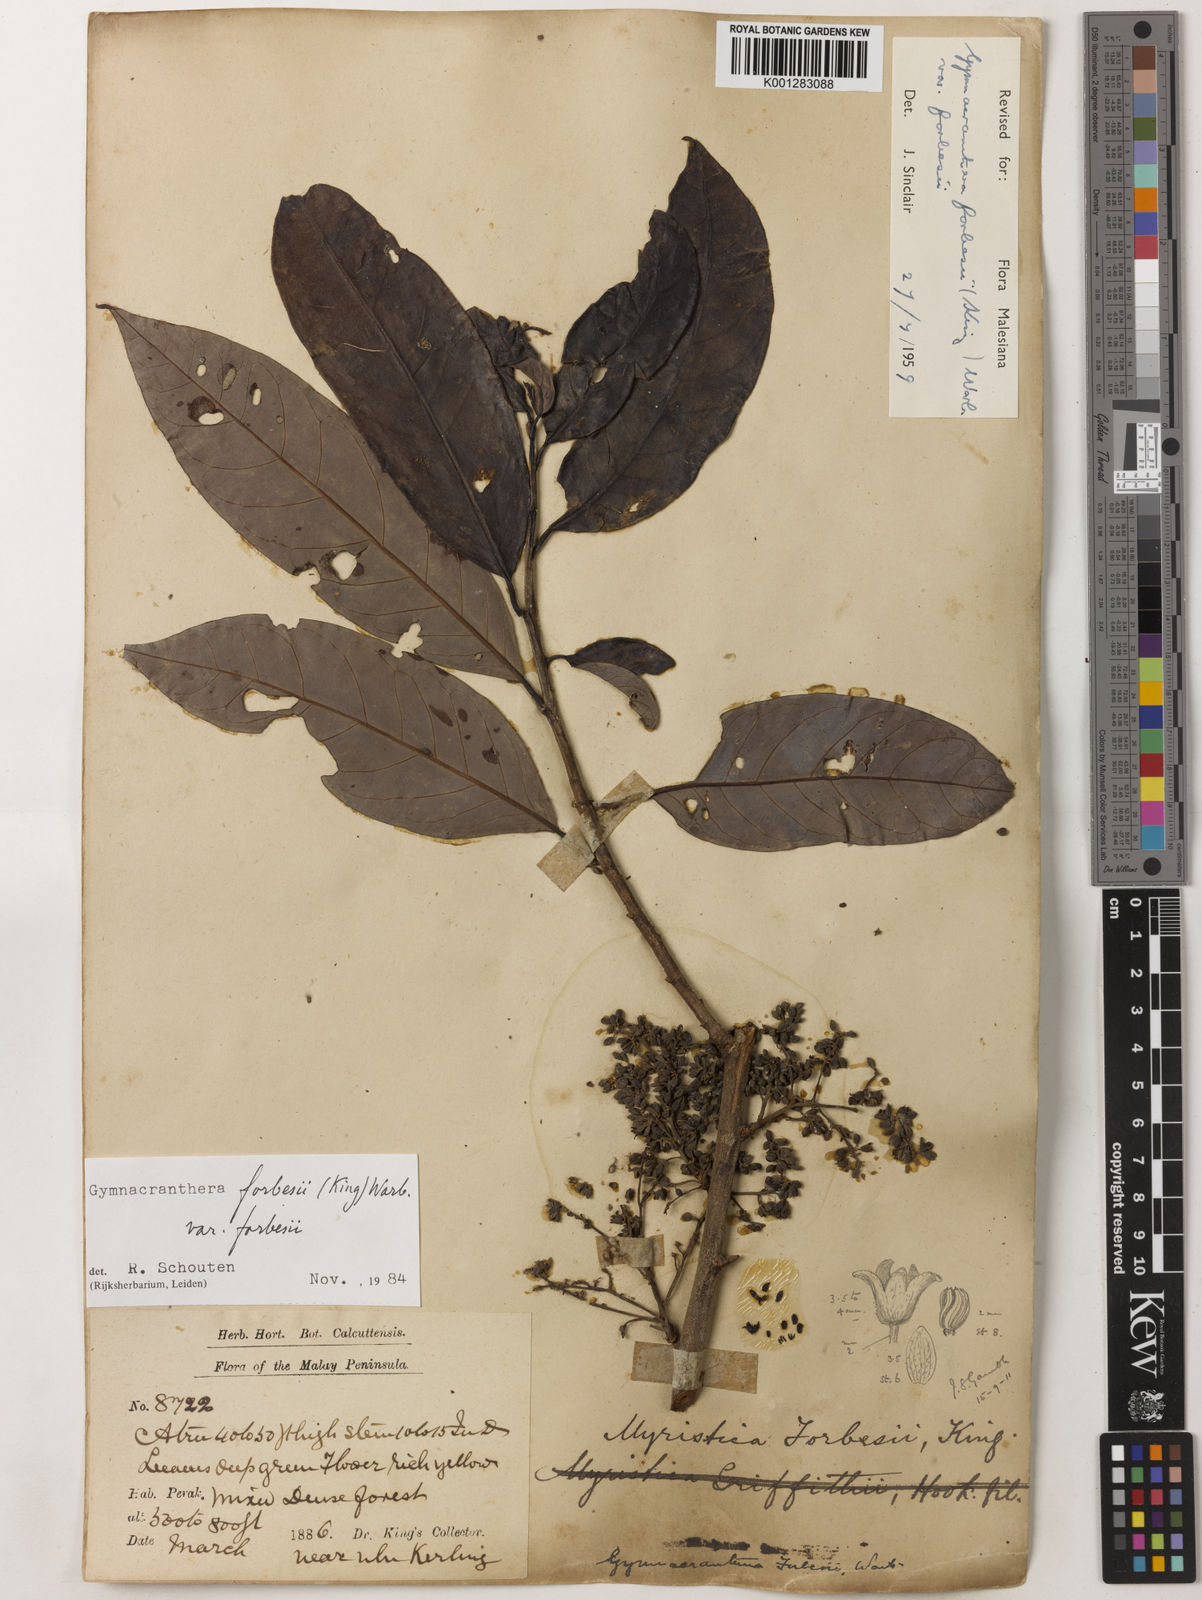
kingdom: Plantae
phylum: Tracheophyta
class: Magnoliopsida
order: Magnoliales
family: Myristicaceae
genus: Gymnacranthera
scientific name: Gymnacranthera forbesii
